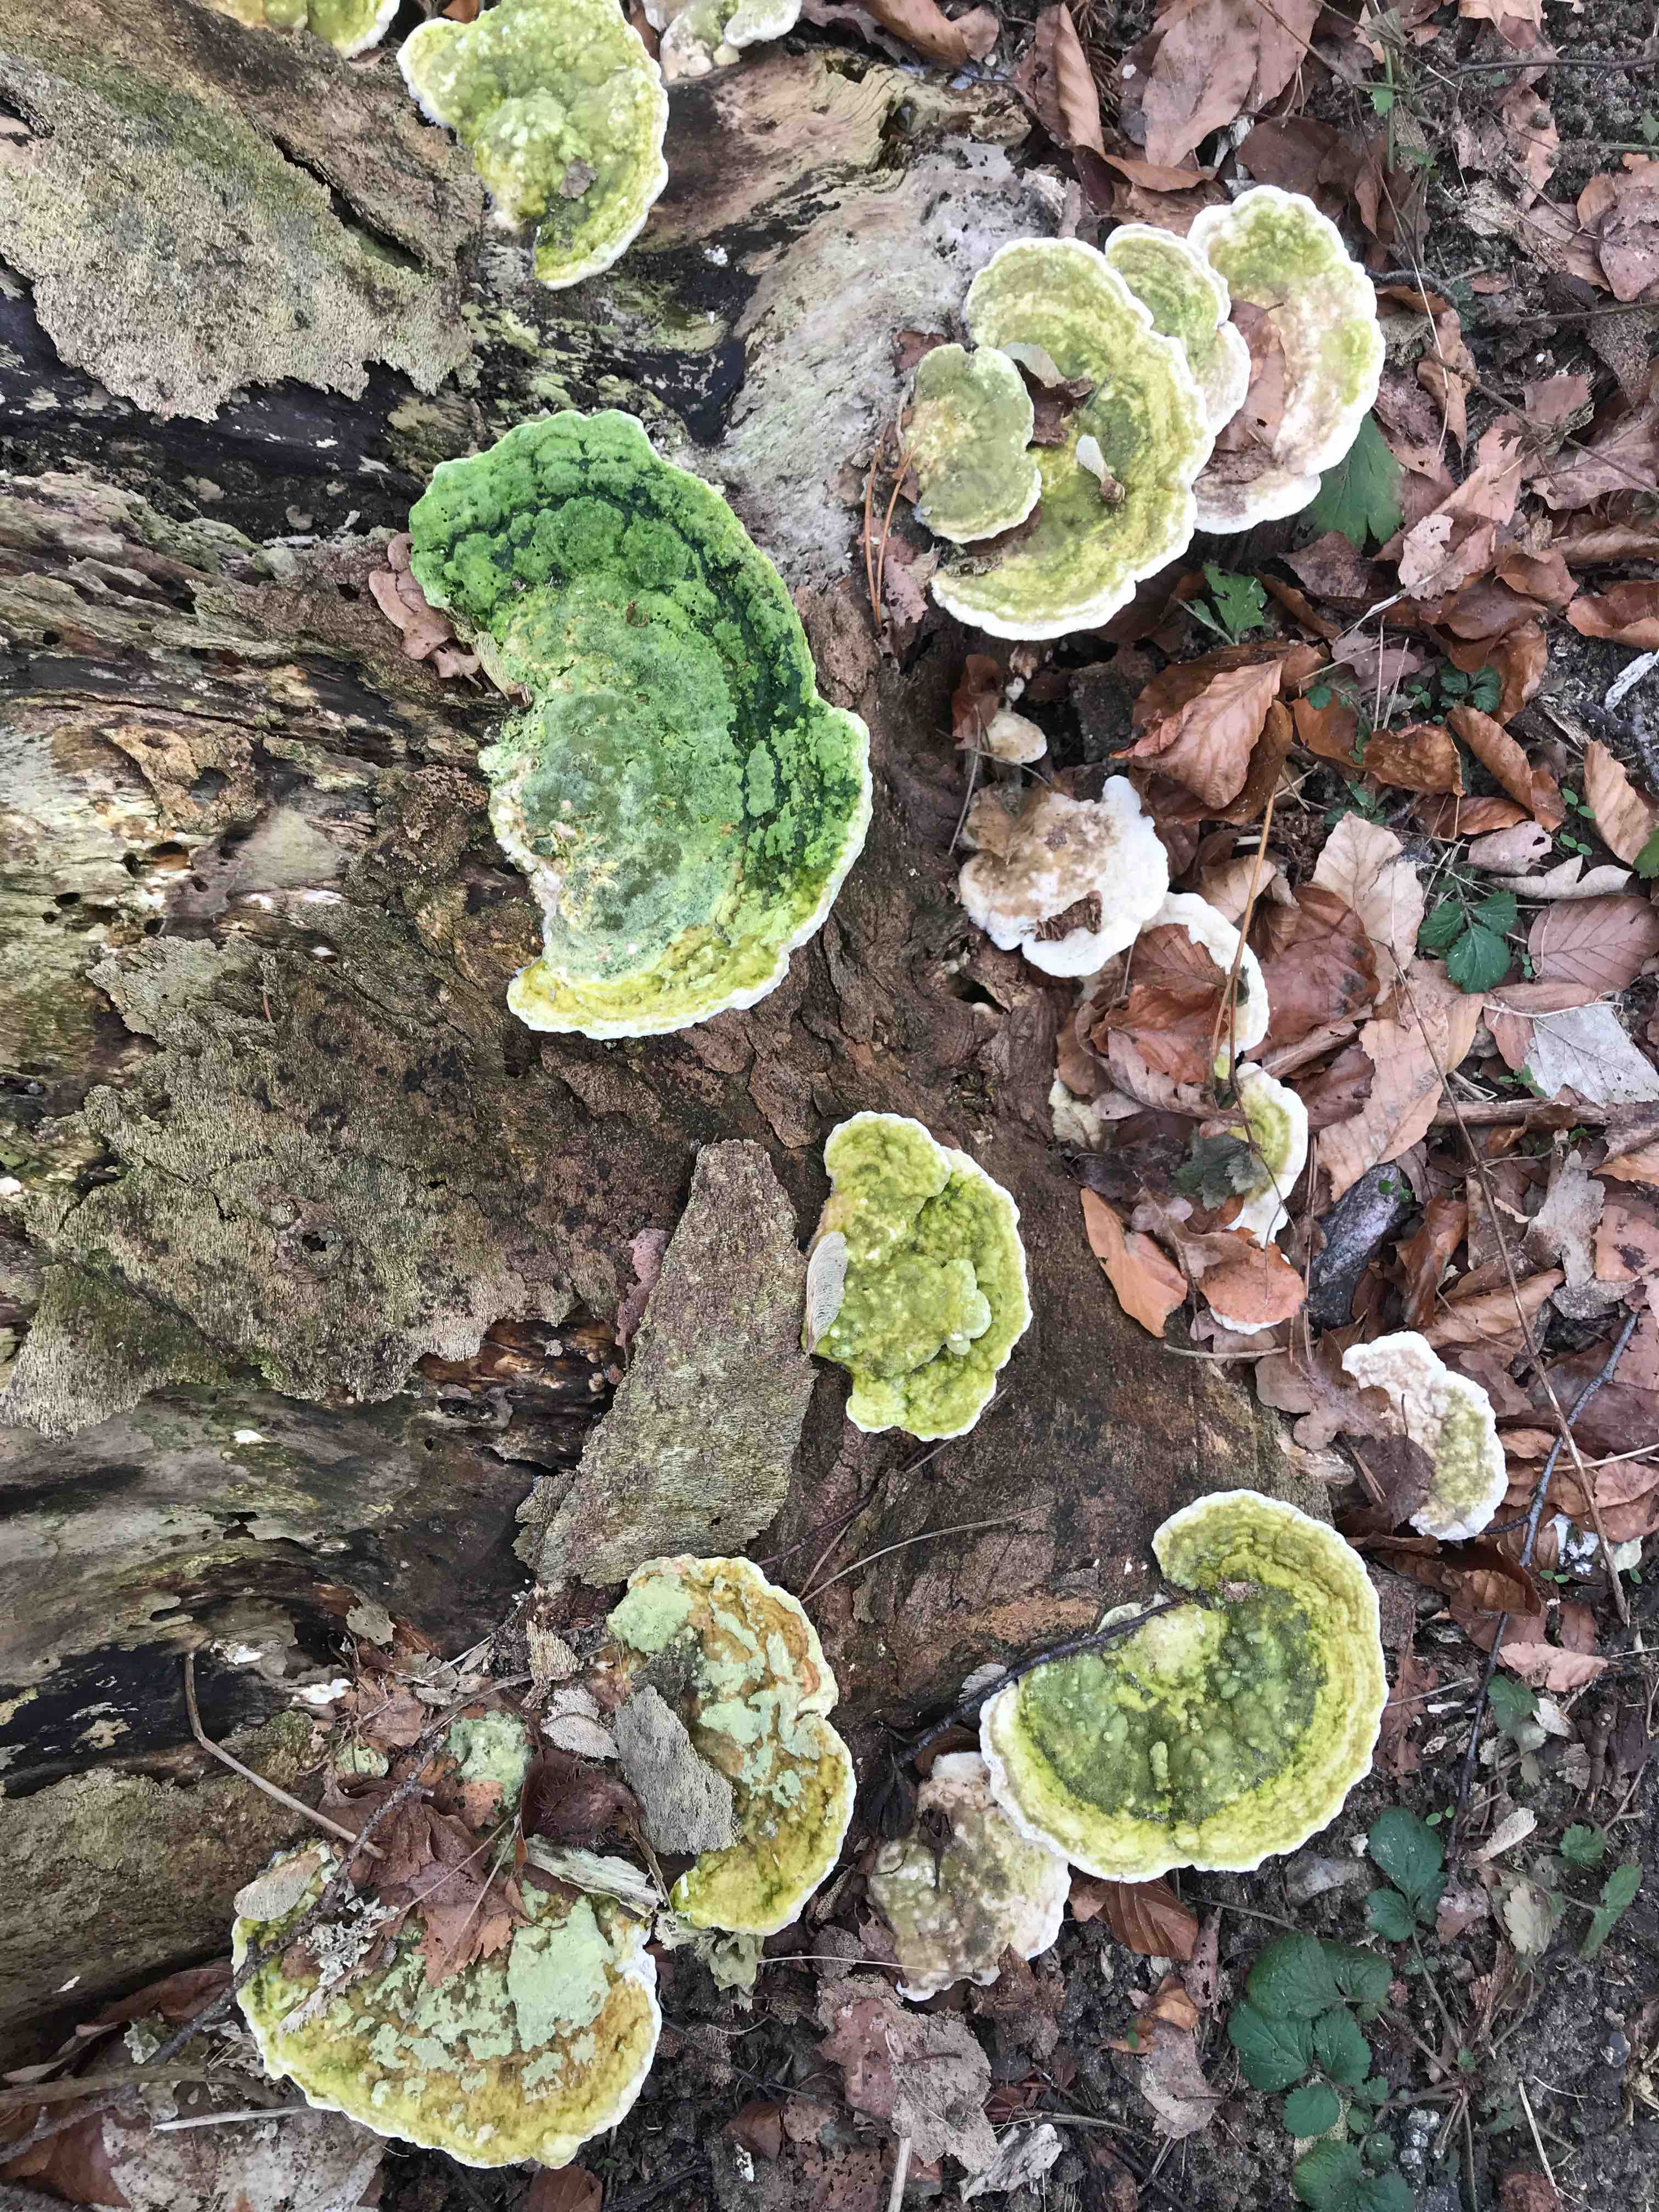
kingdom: Fungi
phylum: Basidiomycota
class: Agaricomycetes
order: Polyporales
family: Polyporaceae
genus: Trametes
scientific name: Trametes gibbosa
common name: puklet læderporesvamp
